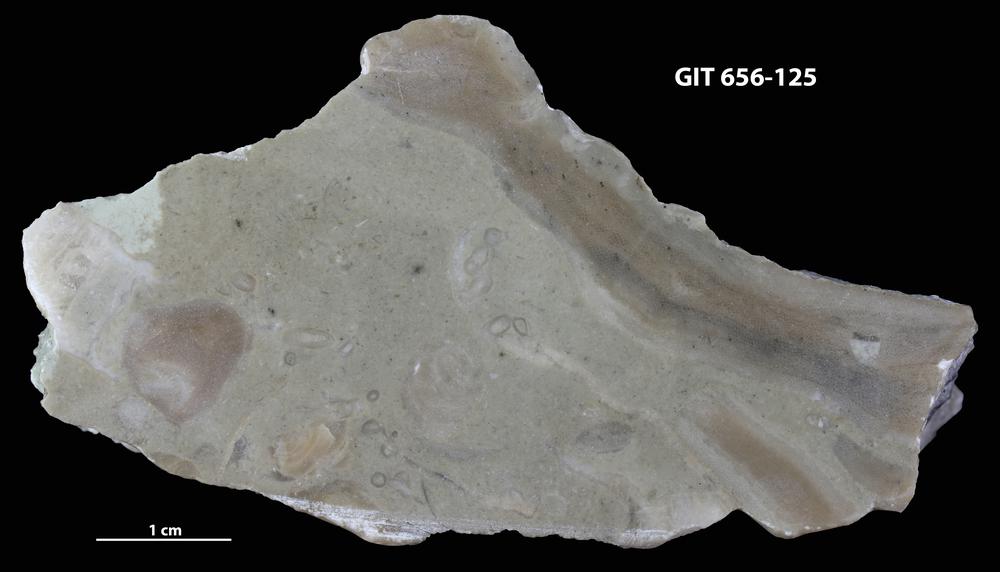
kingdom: Animalia
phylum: Porifera
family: Ecclimadictyidae
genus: Plexodictyon
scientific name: Plexodictyon
